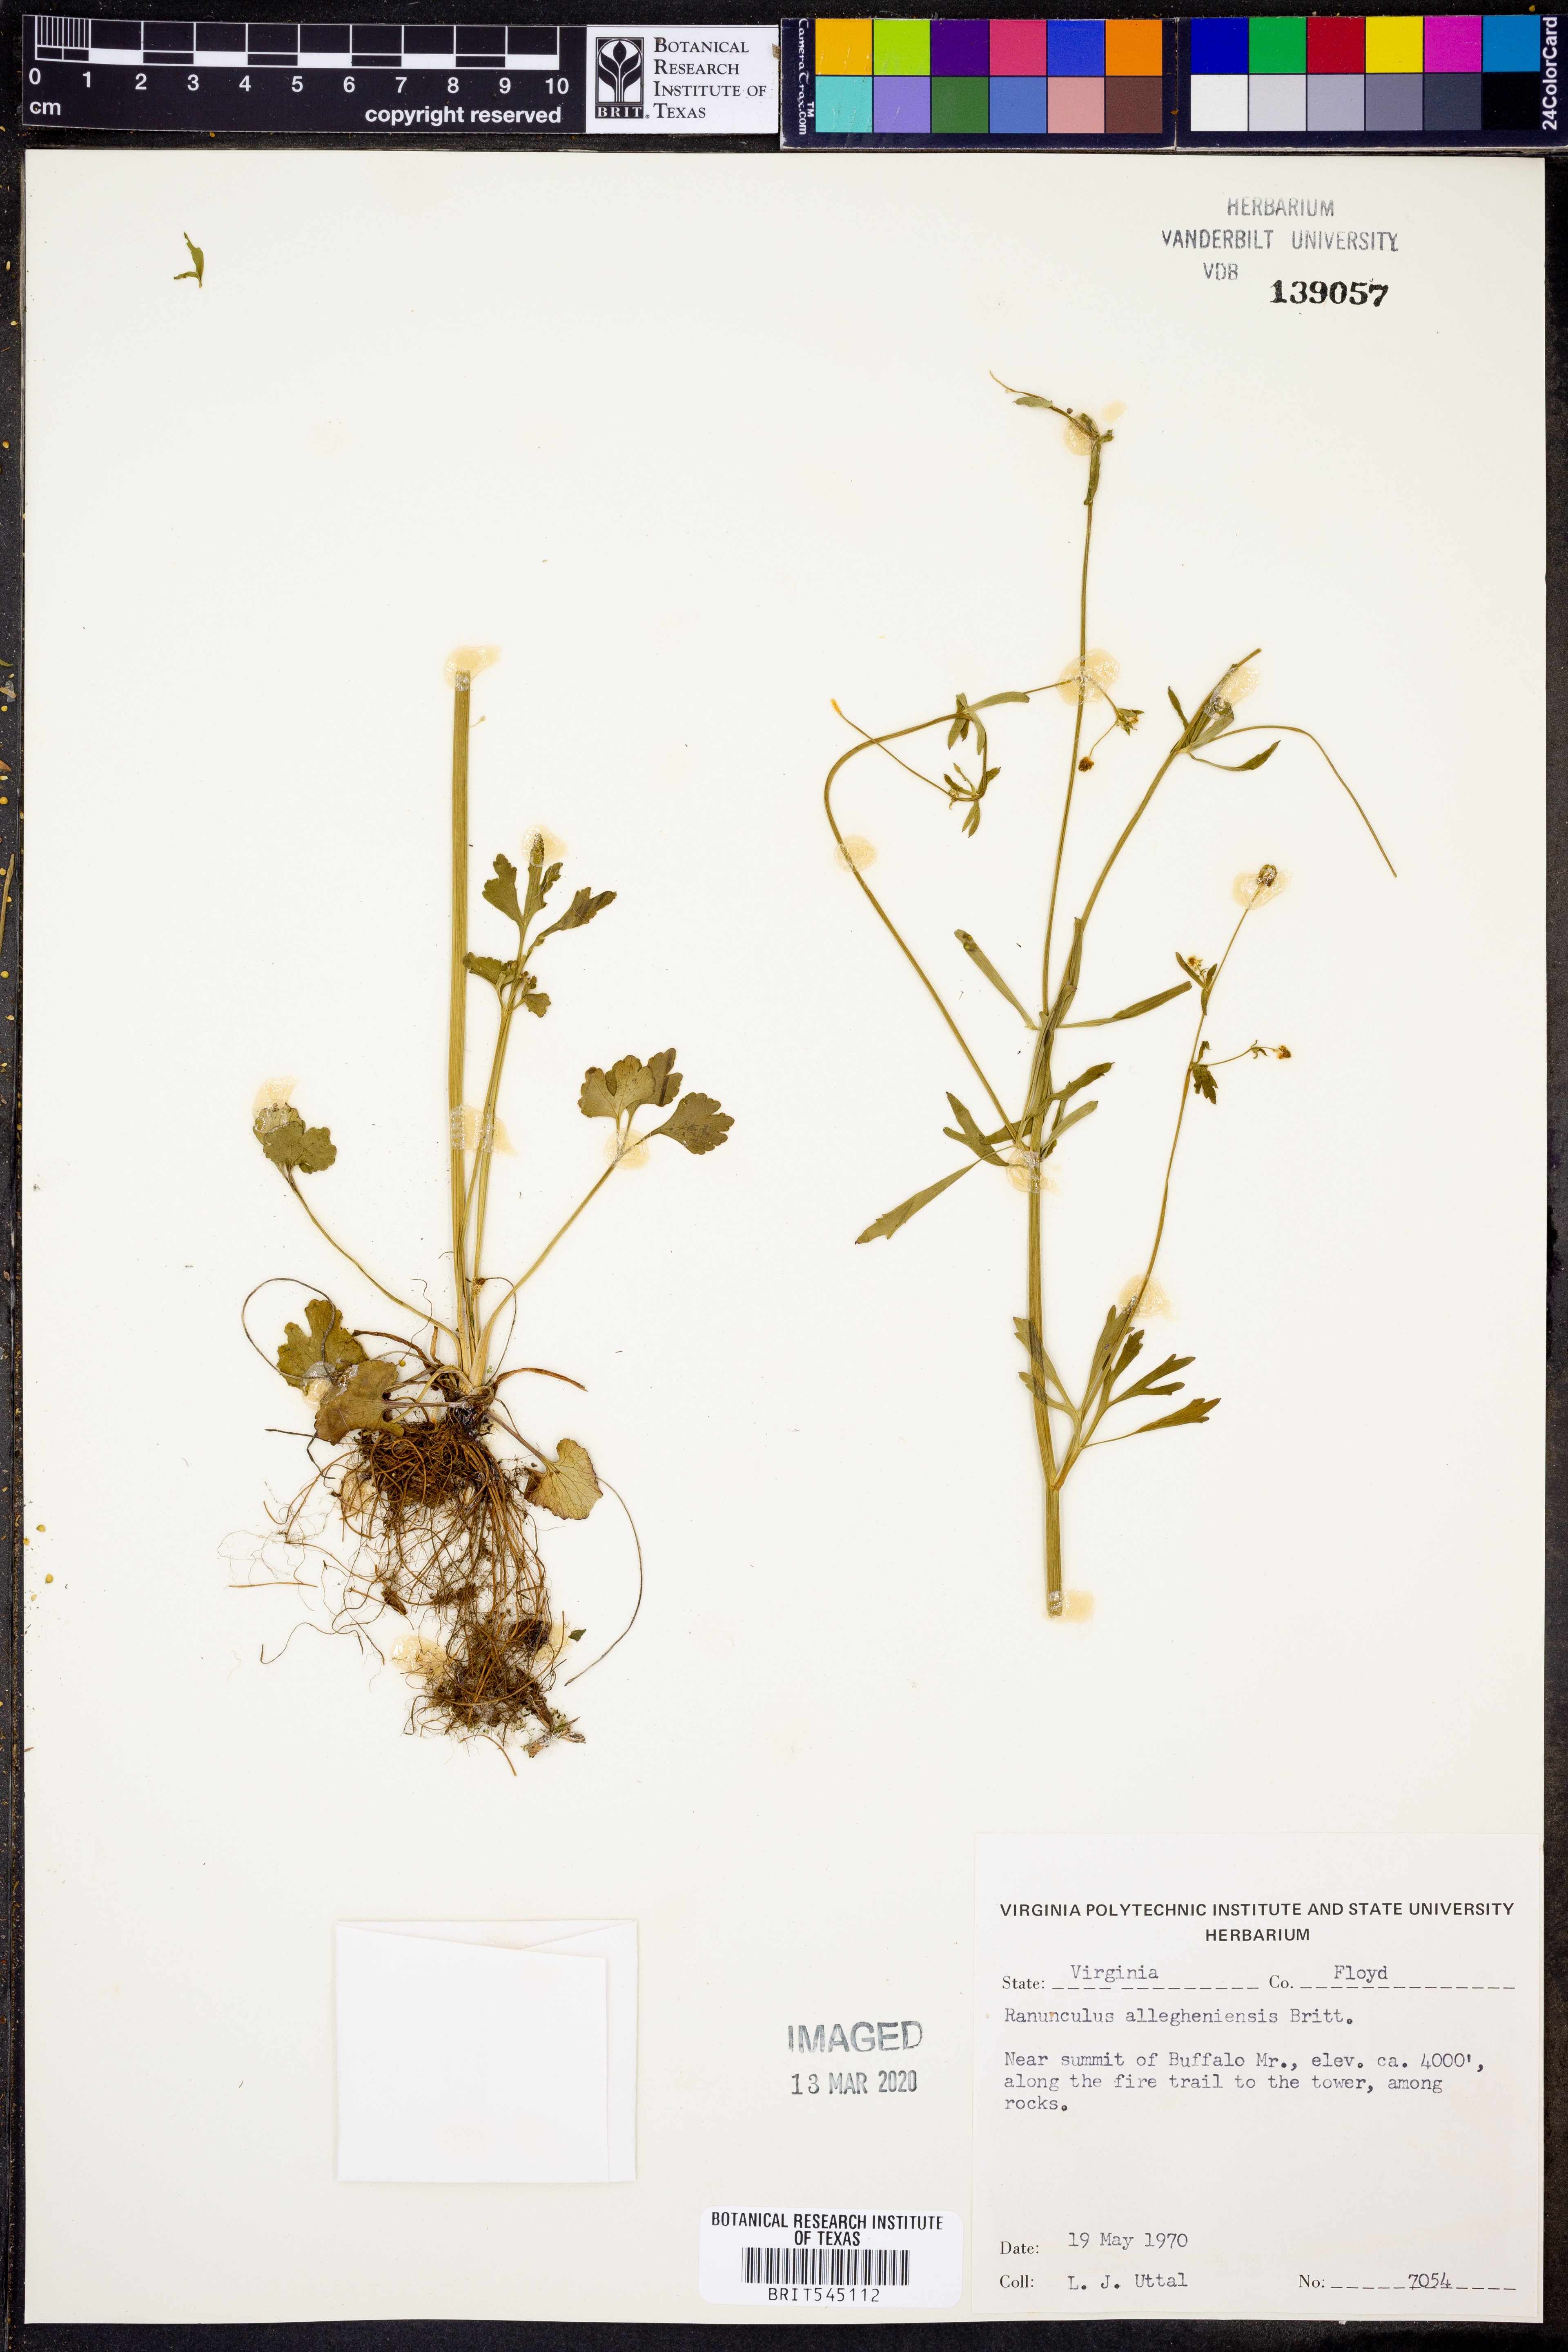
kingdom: Plantae
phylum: Tracheophyta
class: Magnoliopsida
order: Ranunculales
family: Ranunculaceae
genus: Ranunculus
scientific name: Ranunculus allegheniensis
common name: Allegheny mountain buttercup
